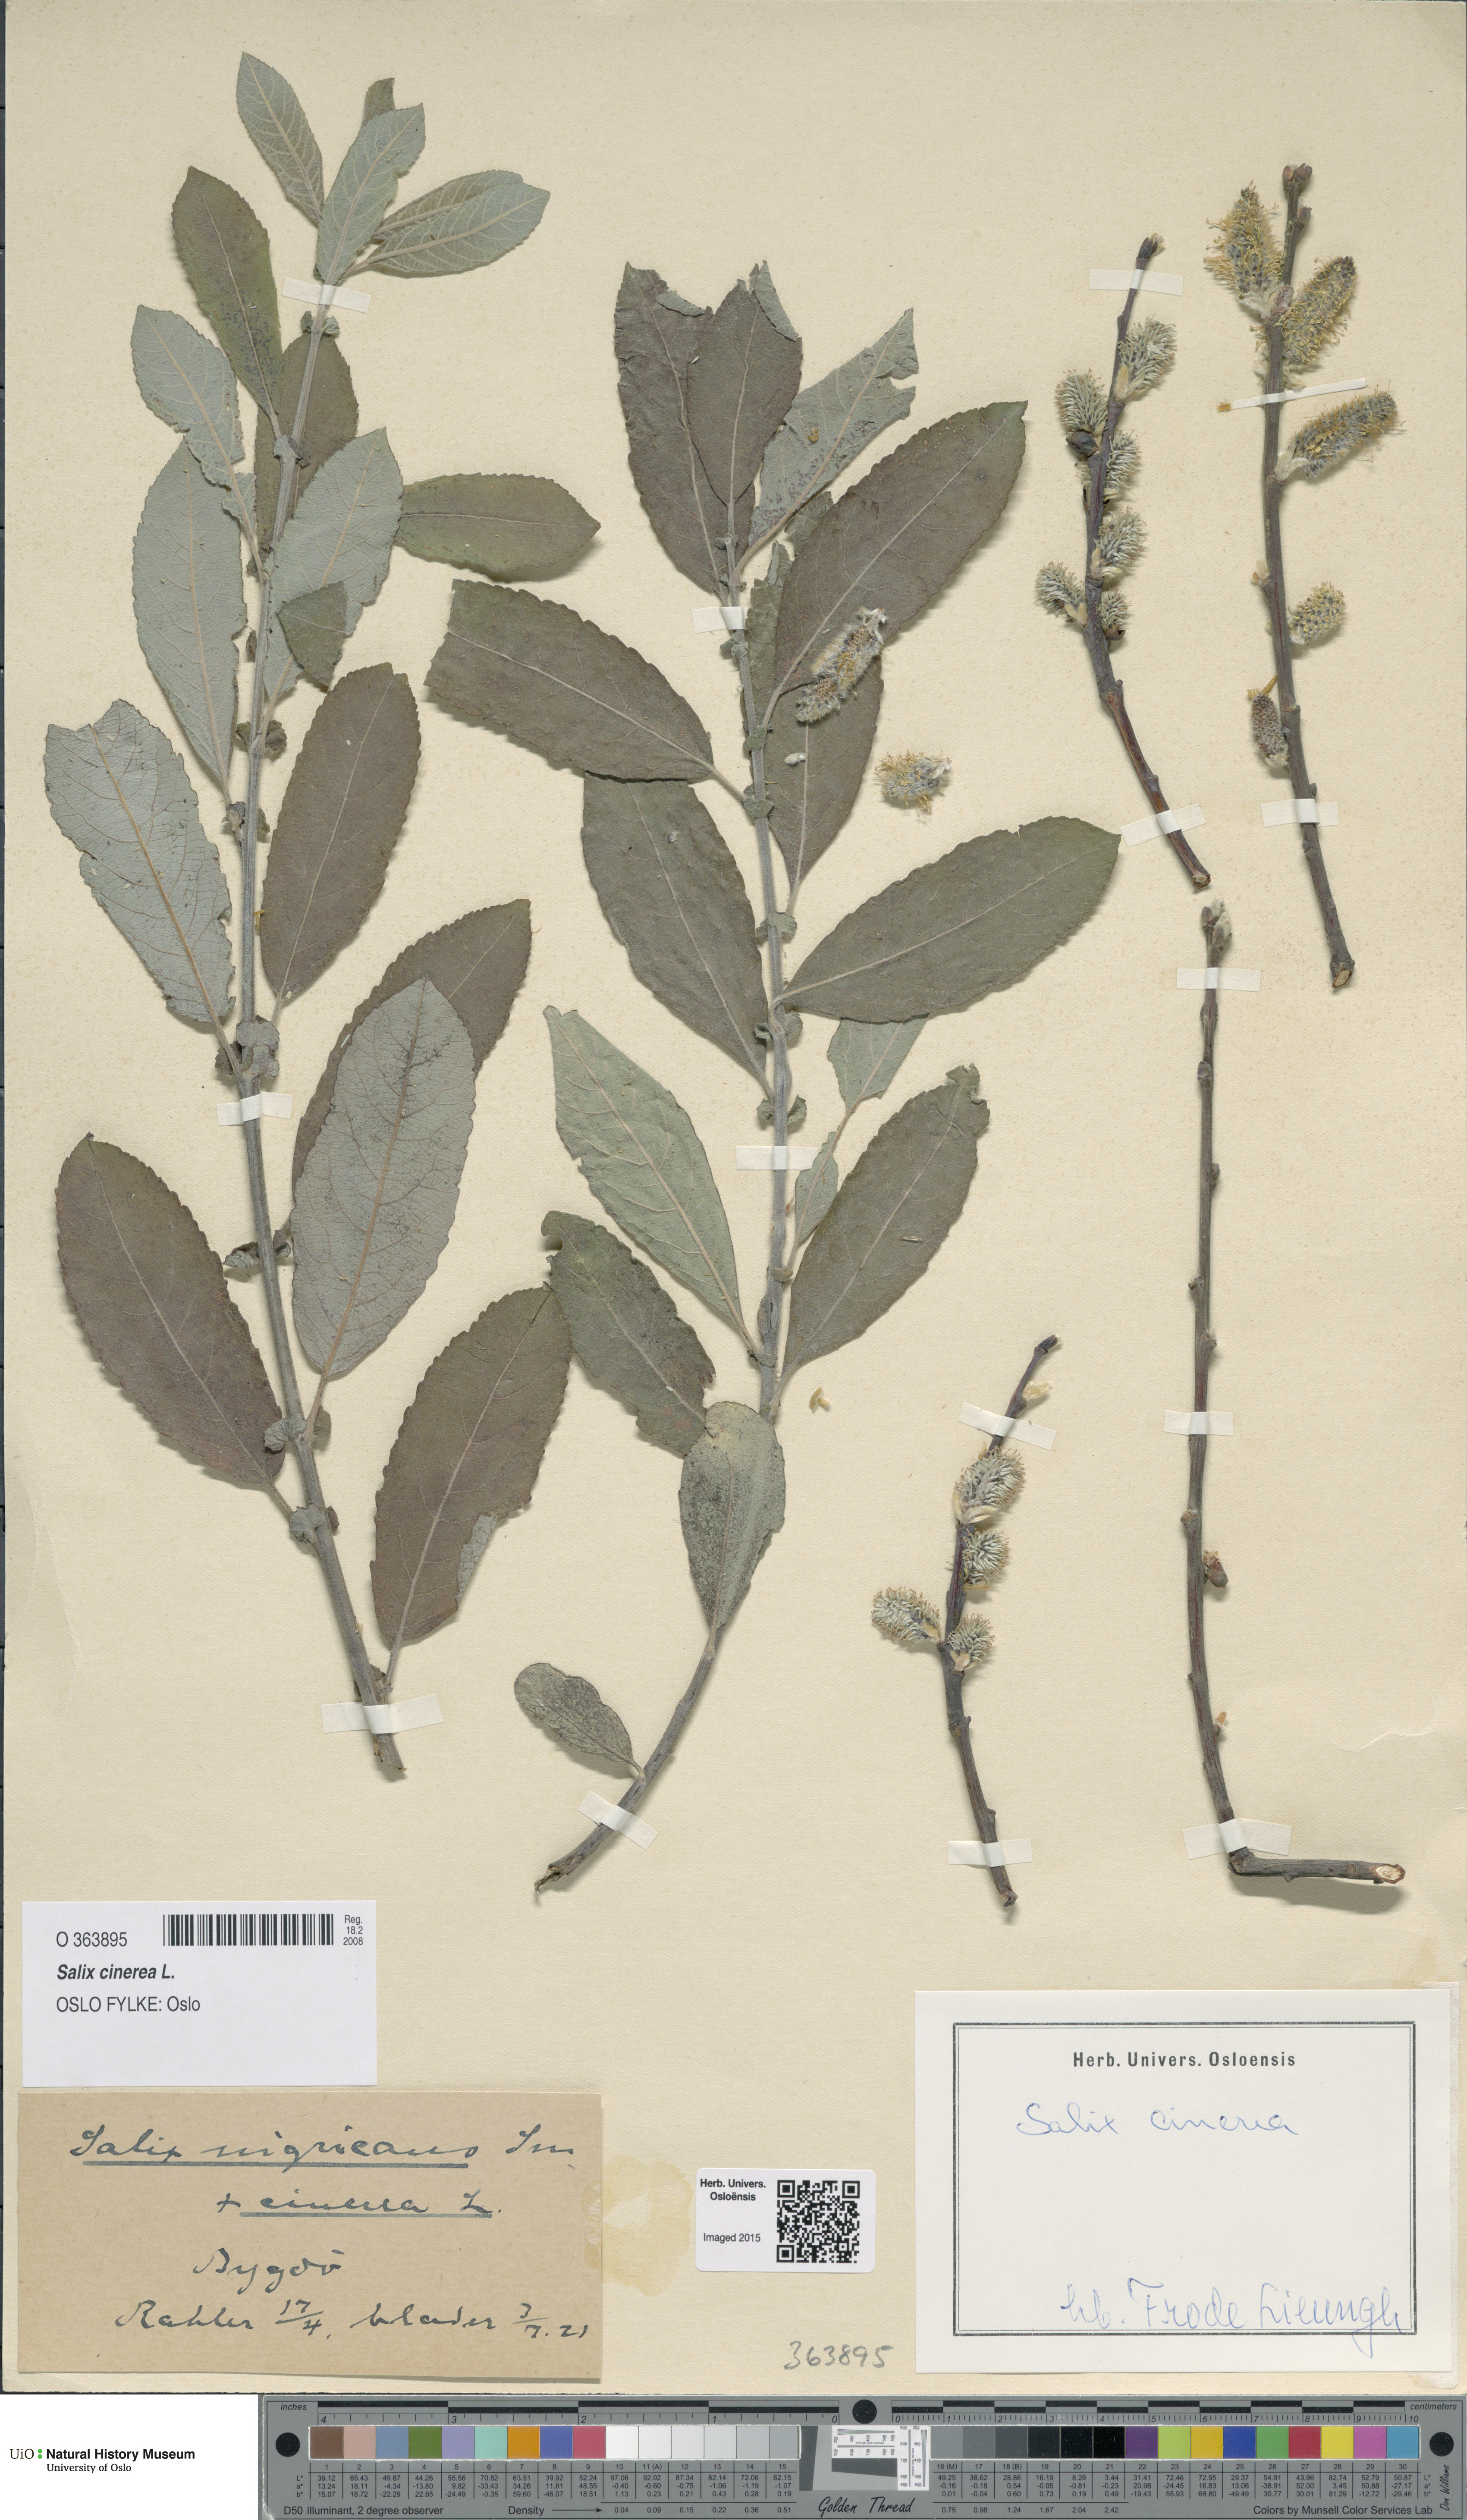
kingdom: Plantae
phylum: Tracheophyta
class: Magnoliopsida
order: Malpighiales
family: Salicaceae
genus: Salix
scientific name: Salix cinerea
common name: Common sallow
